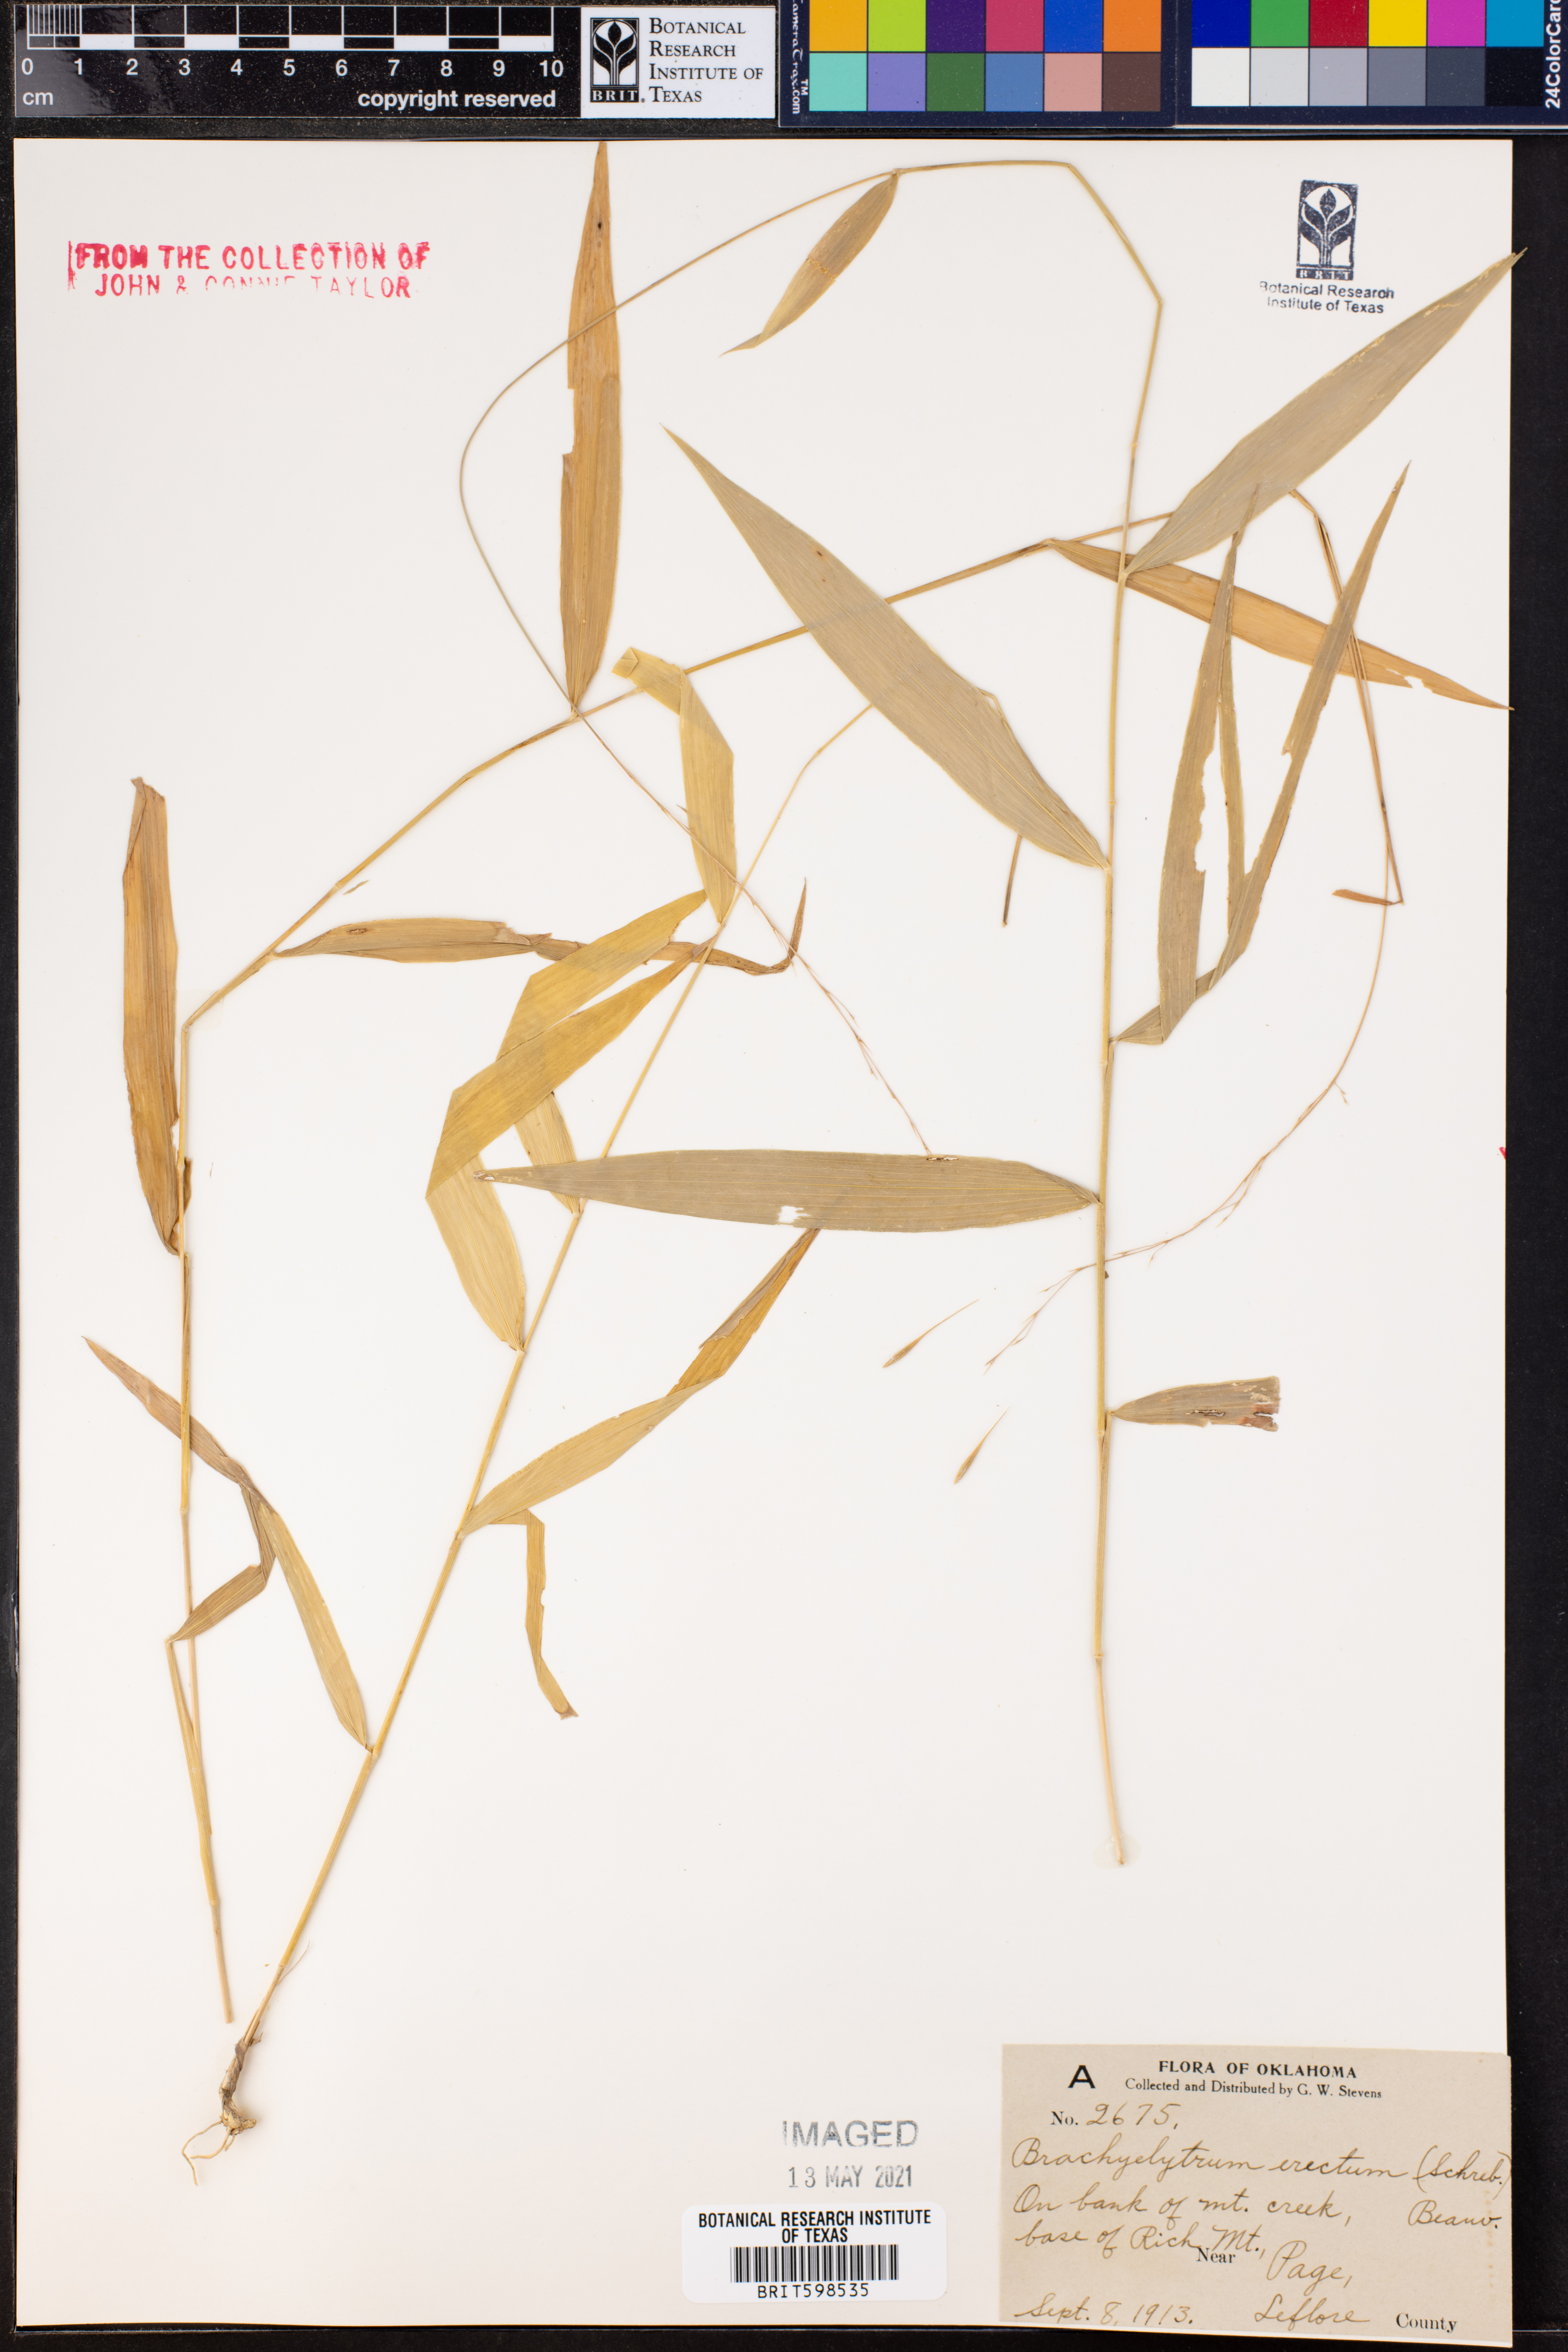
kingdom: Plantae
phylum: Tracheophyta
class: Liliopsida
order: Poales
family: Poaceae
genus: Brachyelytrum
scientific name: Brachyelytrum erectum
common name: Bearded shorthusk
